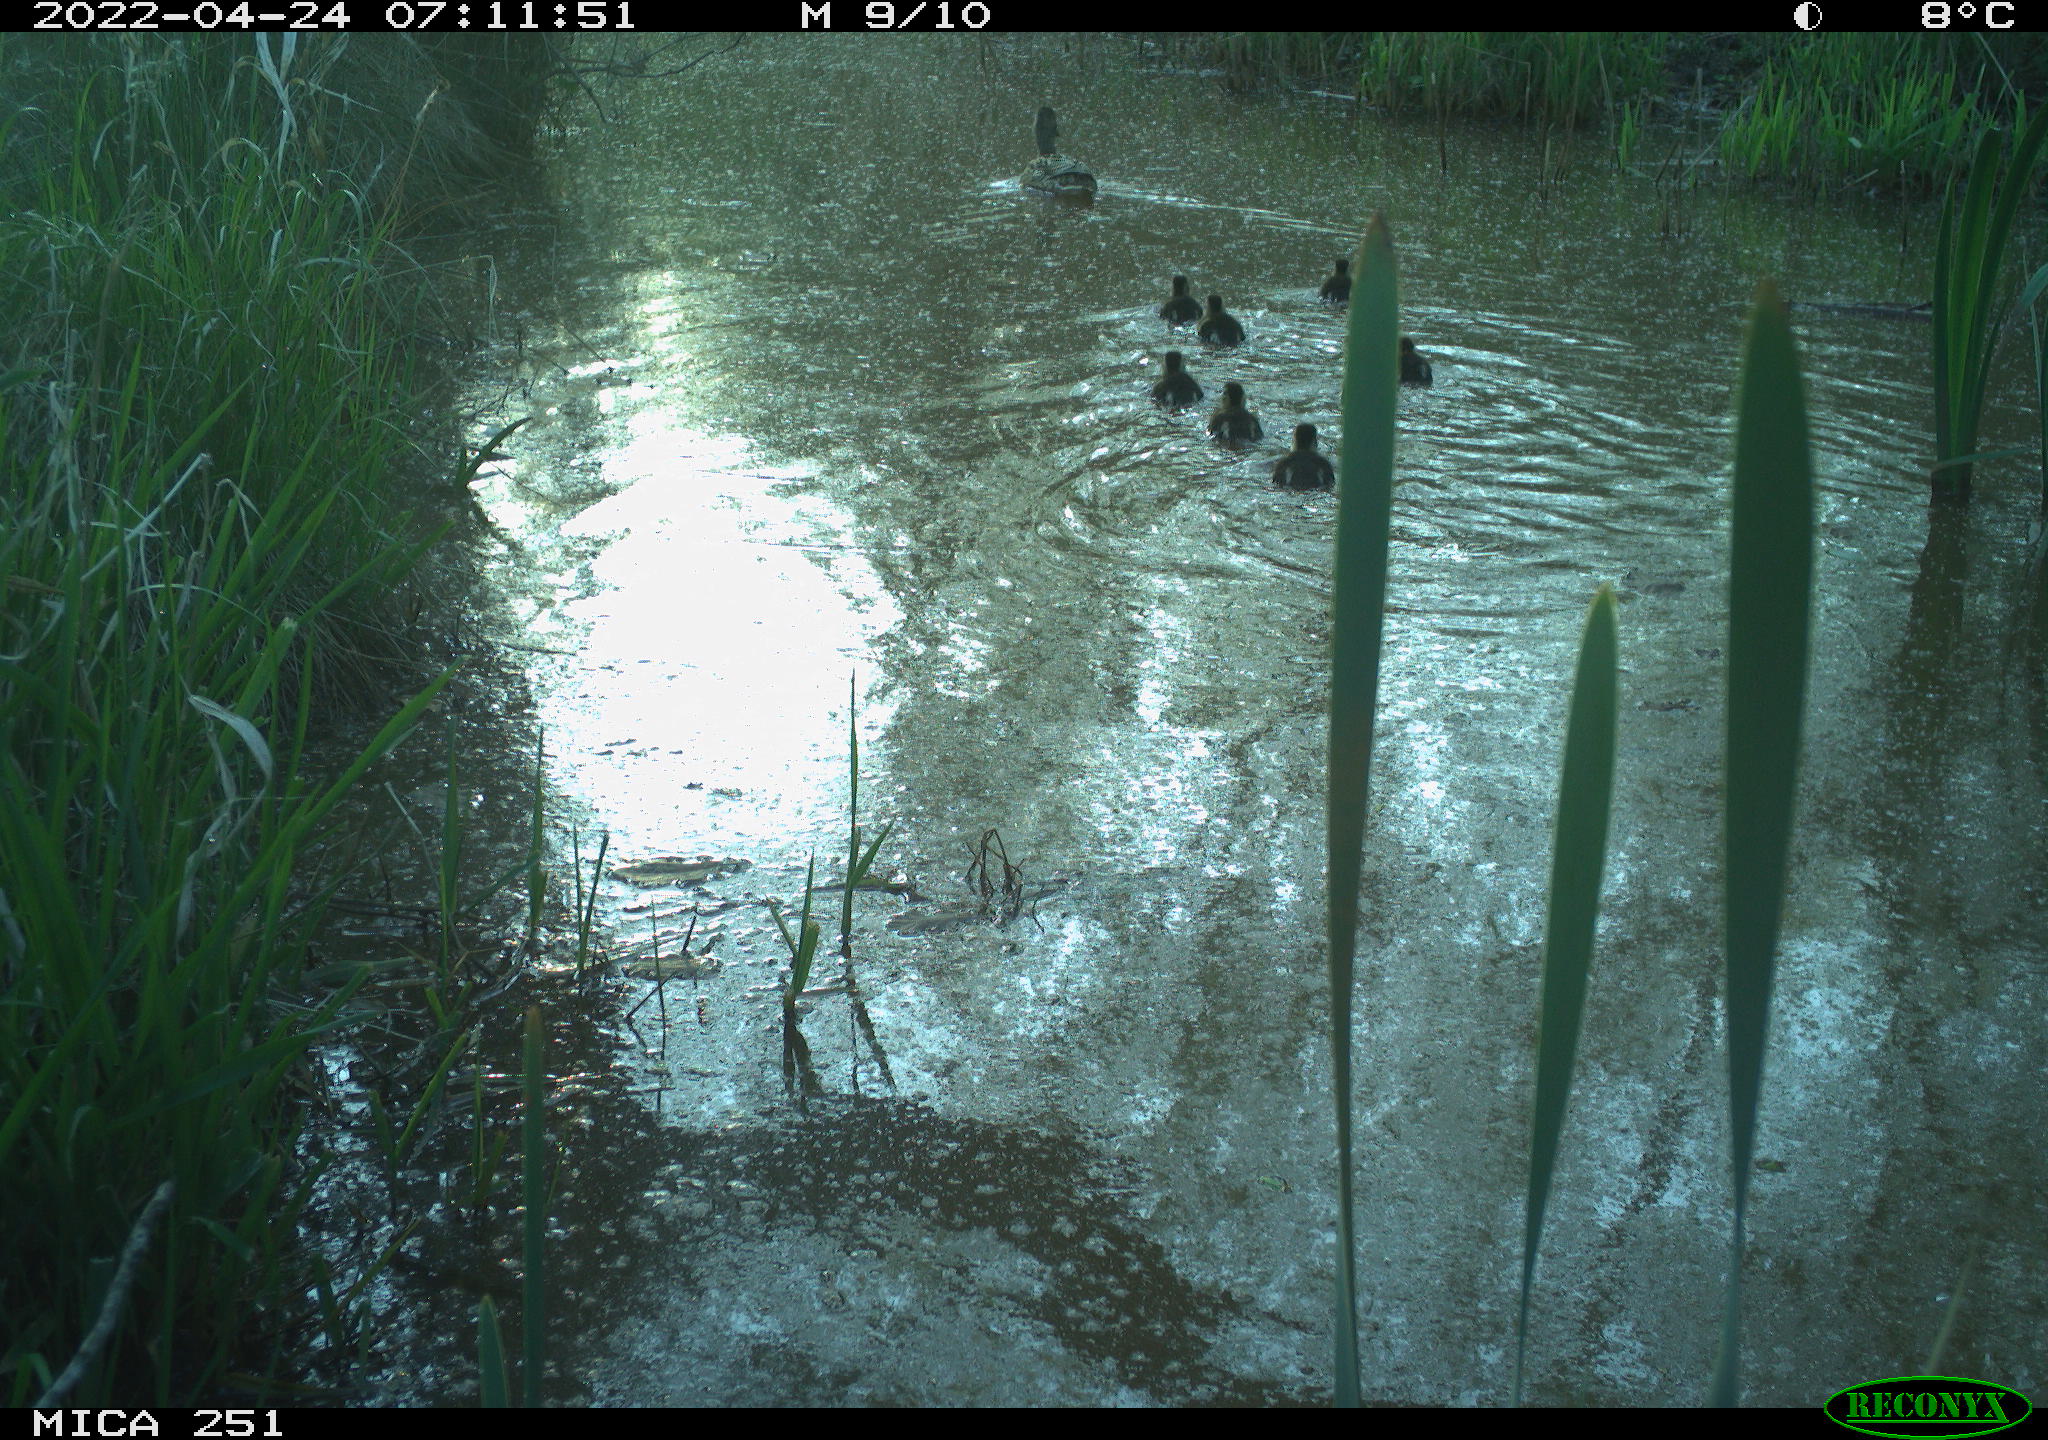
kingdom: Animalia
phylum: Chordata
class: Aves
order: Anseriformes
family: Anatidae
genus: Anas
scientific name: Anas platyrhynchos
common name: Mallard
